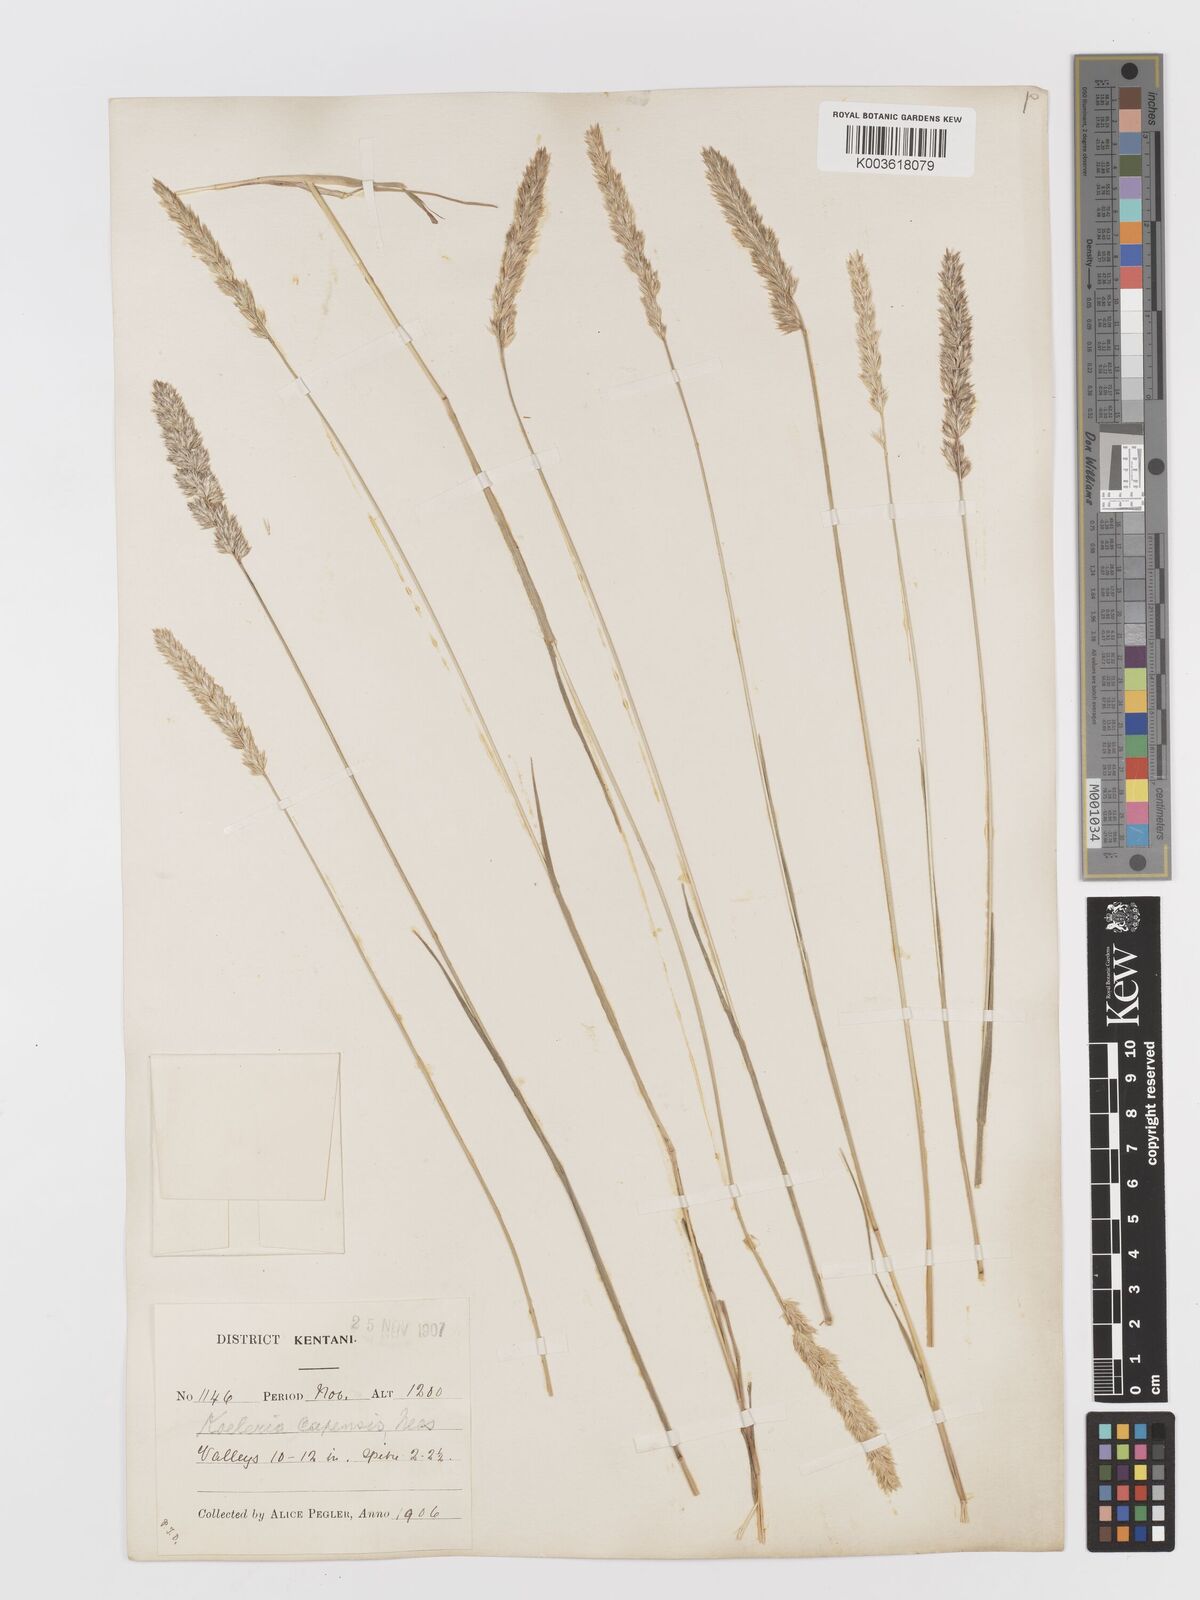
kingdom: Plantae
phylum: Tracheophyta
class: Liliopsida
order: Poales
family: Poaceae
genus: Koeleria
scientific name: Koeleria capensis
